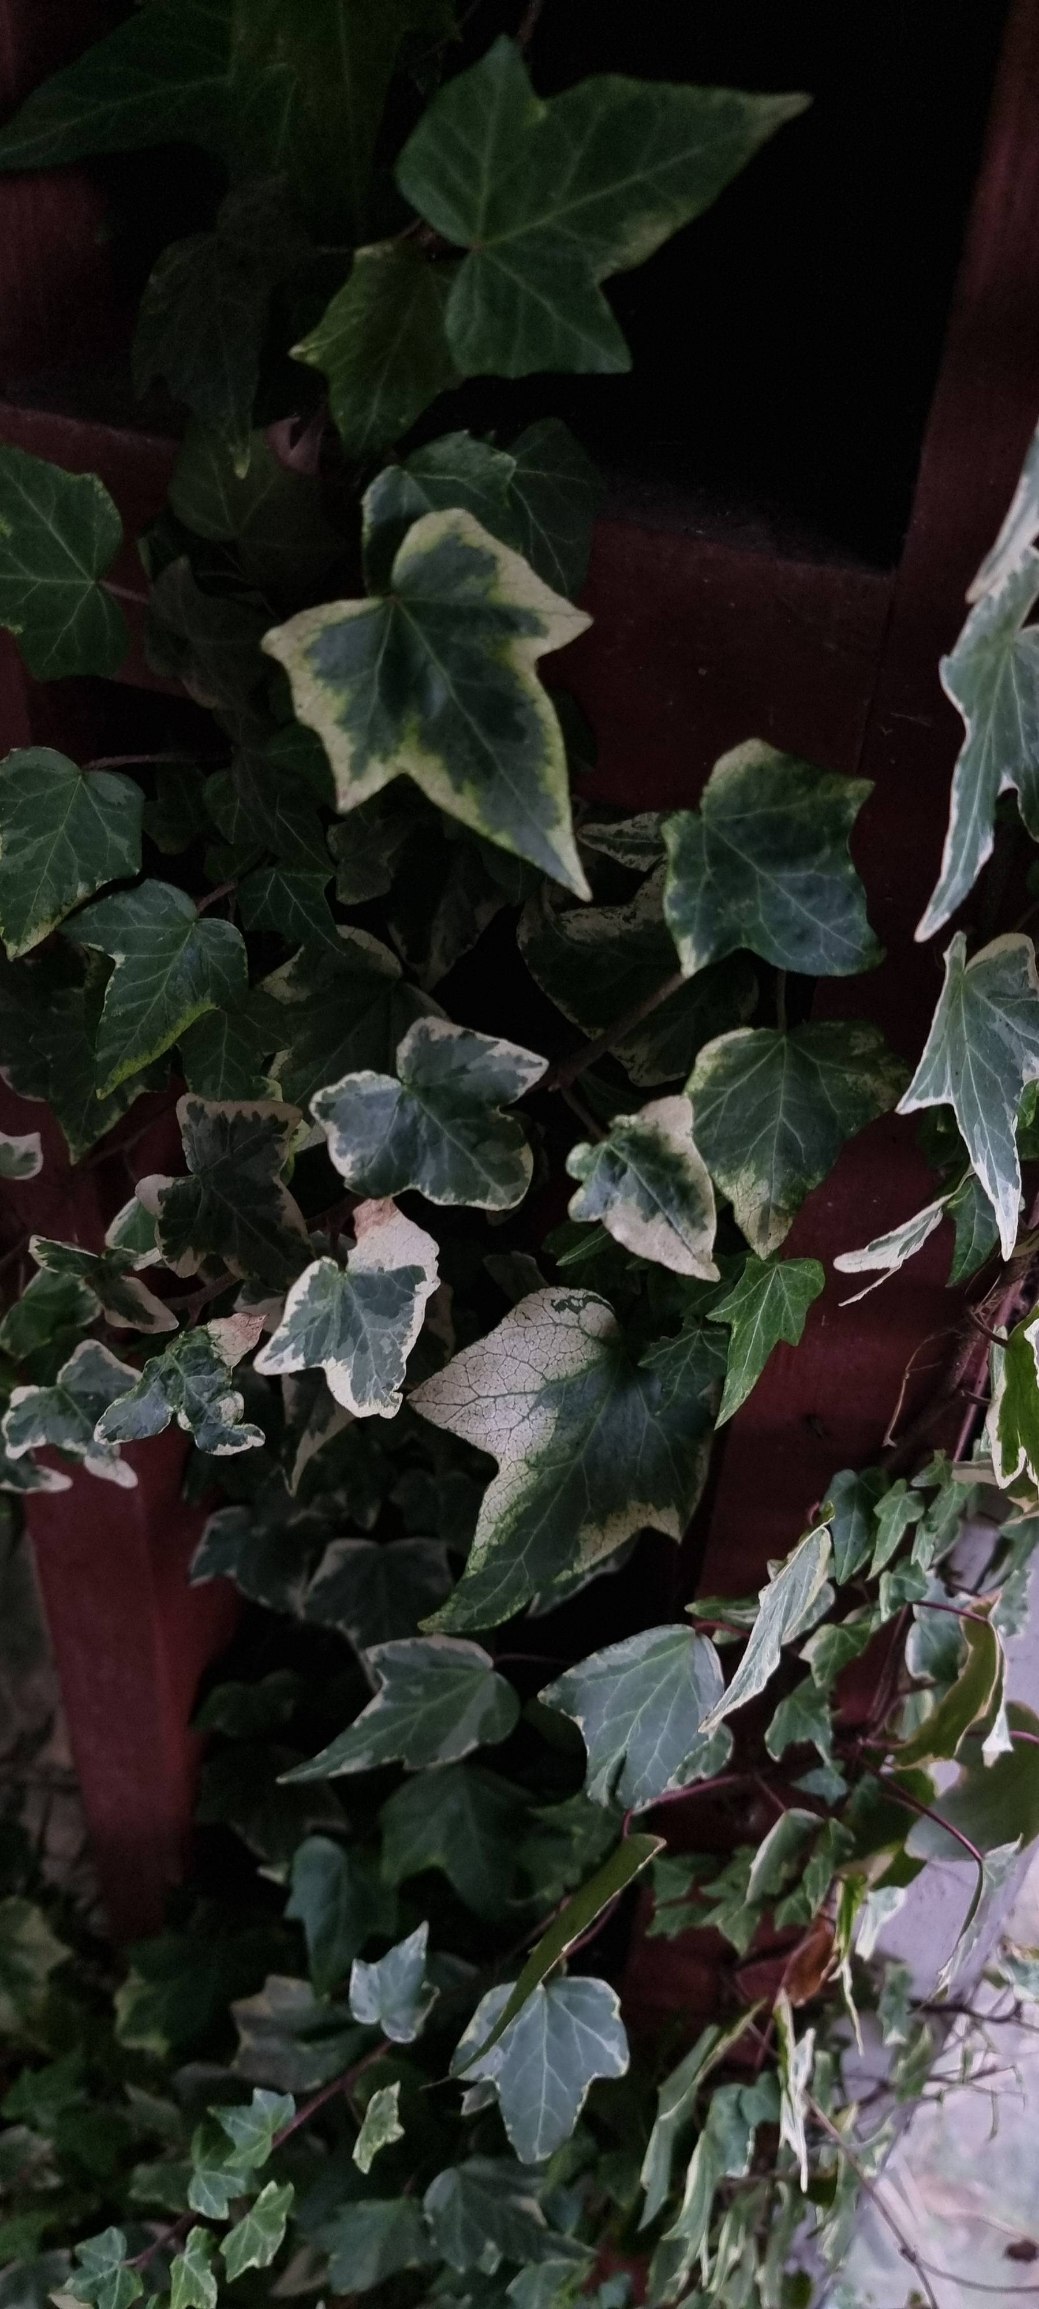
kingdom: Plantae
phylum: Tracheophyta
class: Magnoliopsida
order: Apiales
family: Araliaceae
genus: Hedera
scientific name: Hedera helix
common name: Vedbend
